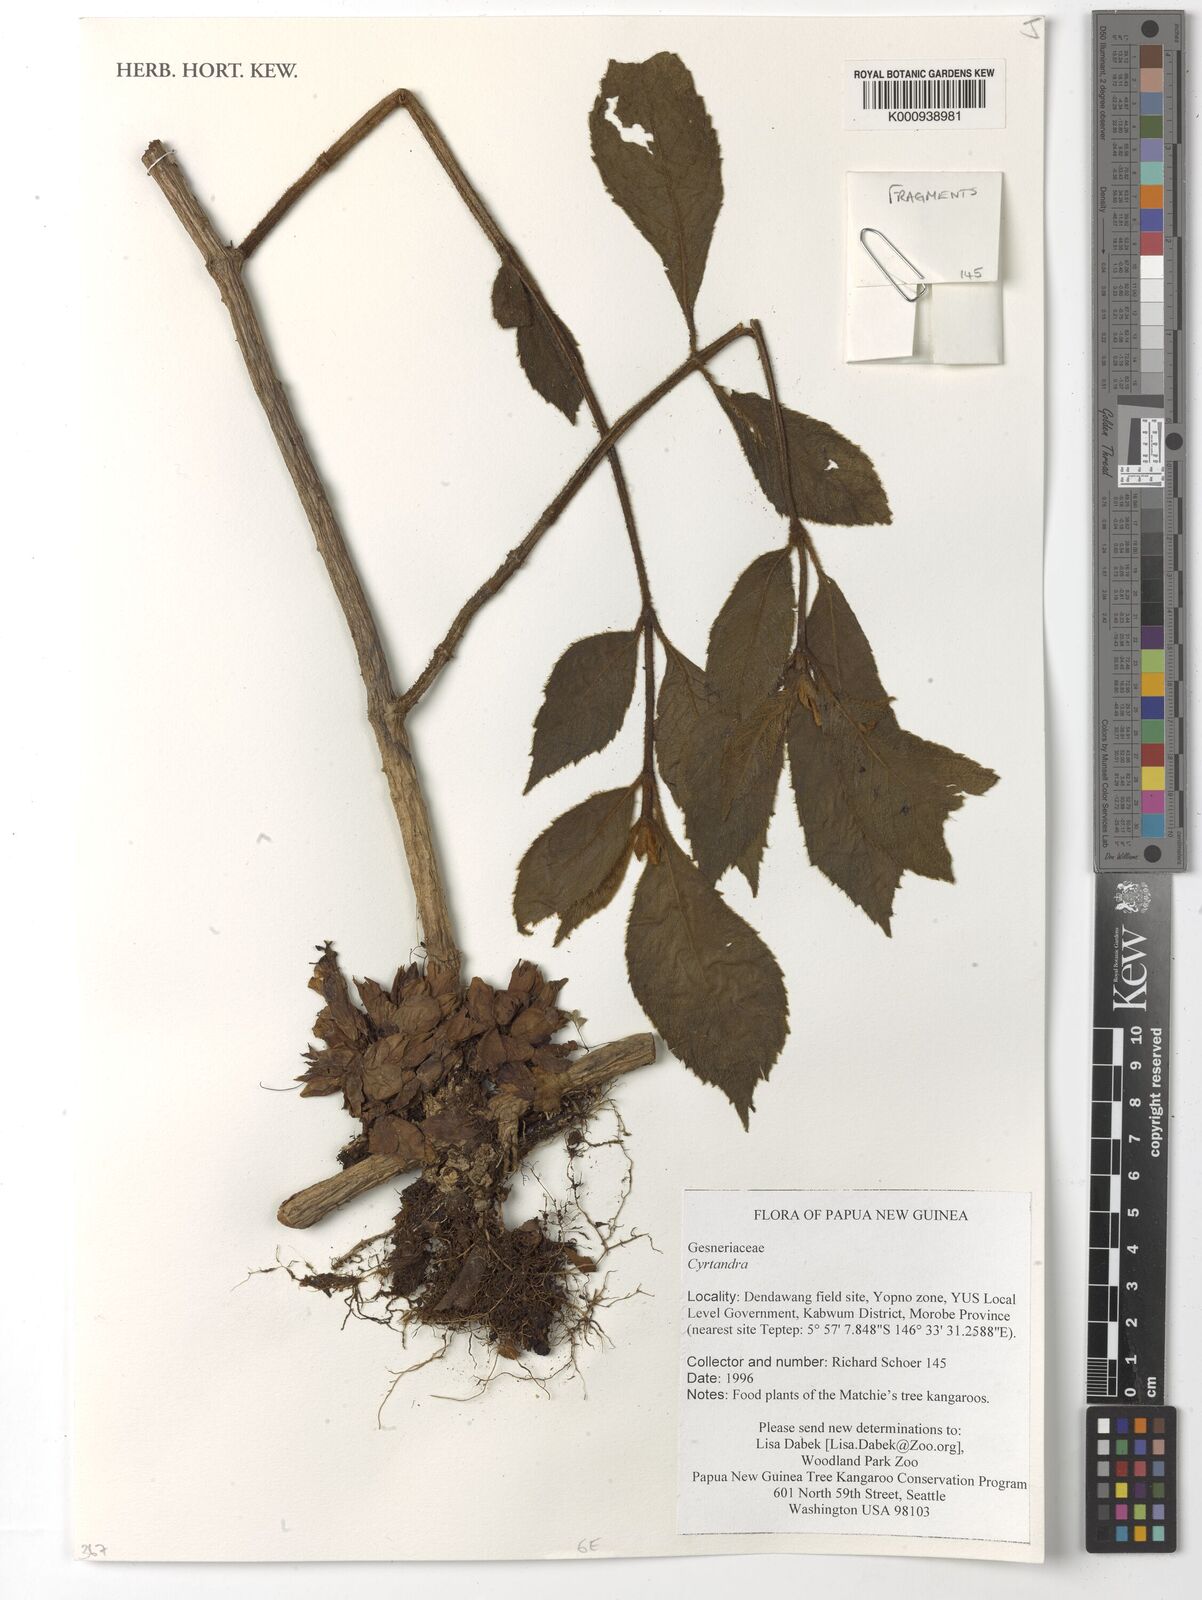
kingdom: Plantae
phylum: Tracheophyta
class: Magnoliopsida
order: Lamiales
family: Gesneriaceae
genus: Cyrtandra
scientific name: Cyrtandra
